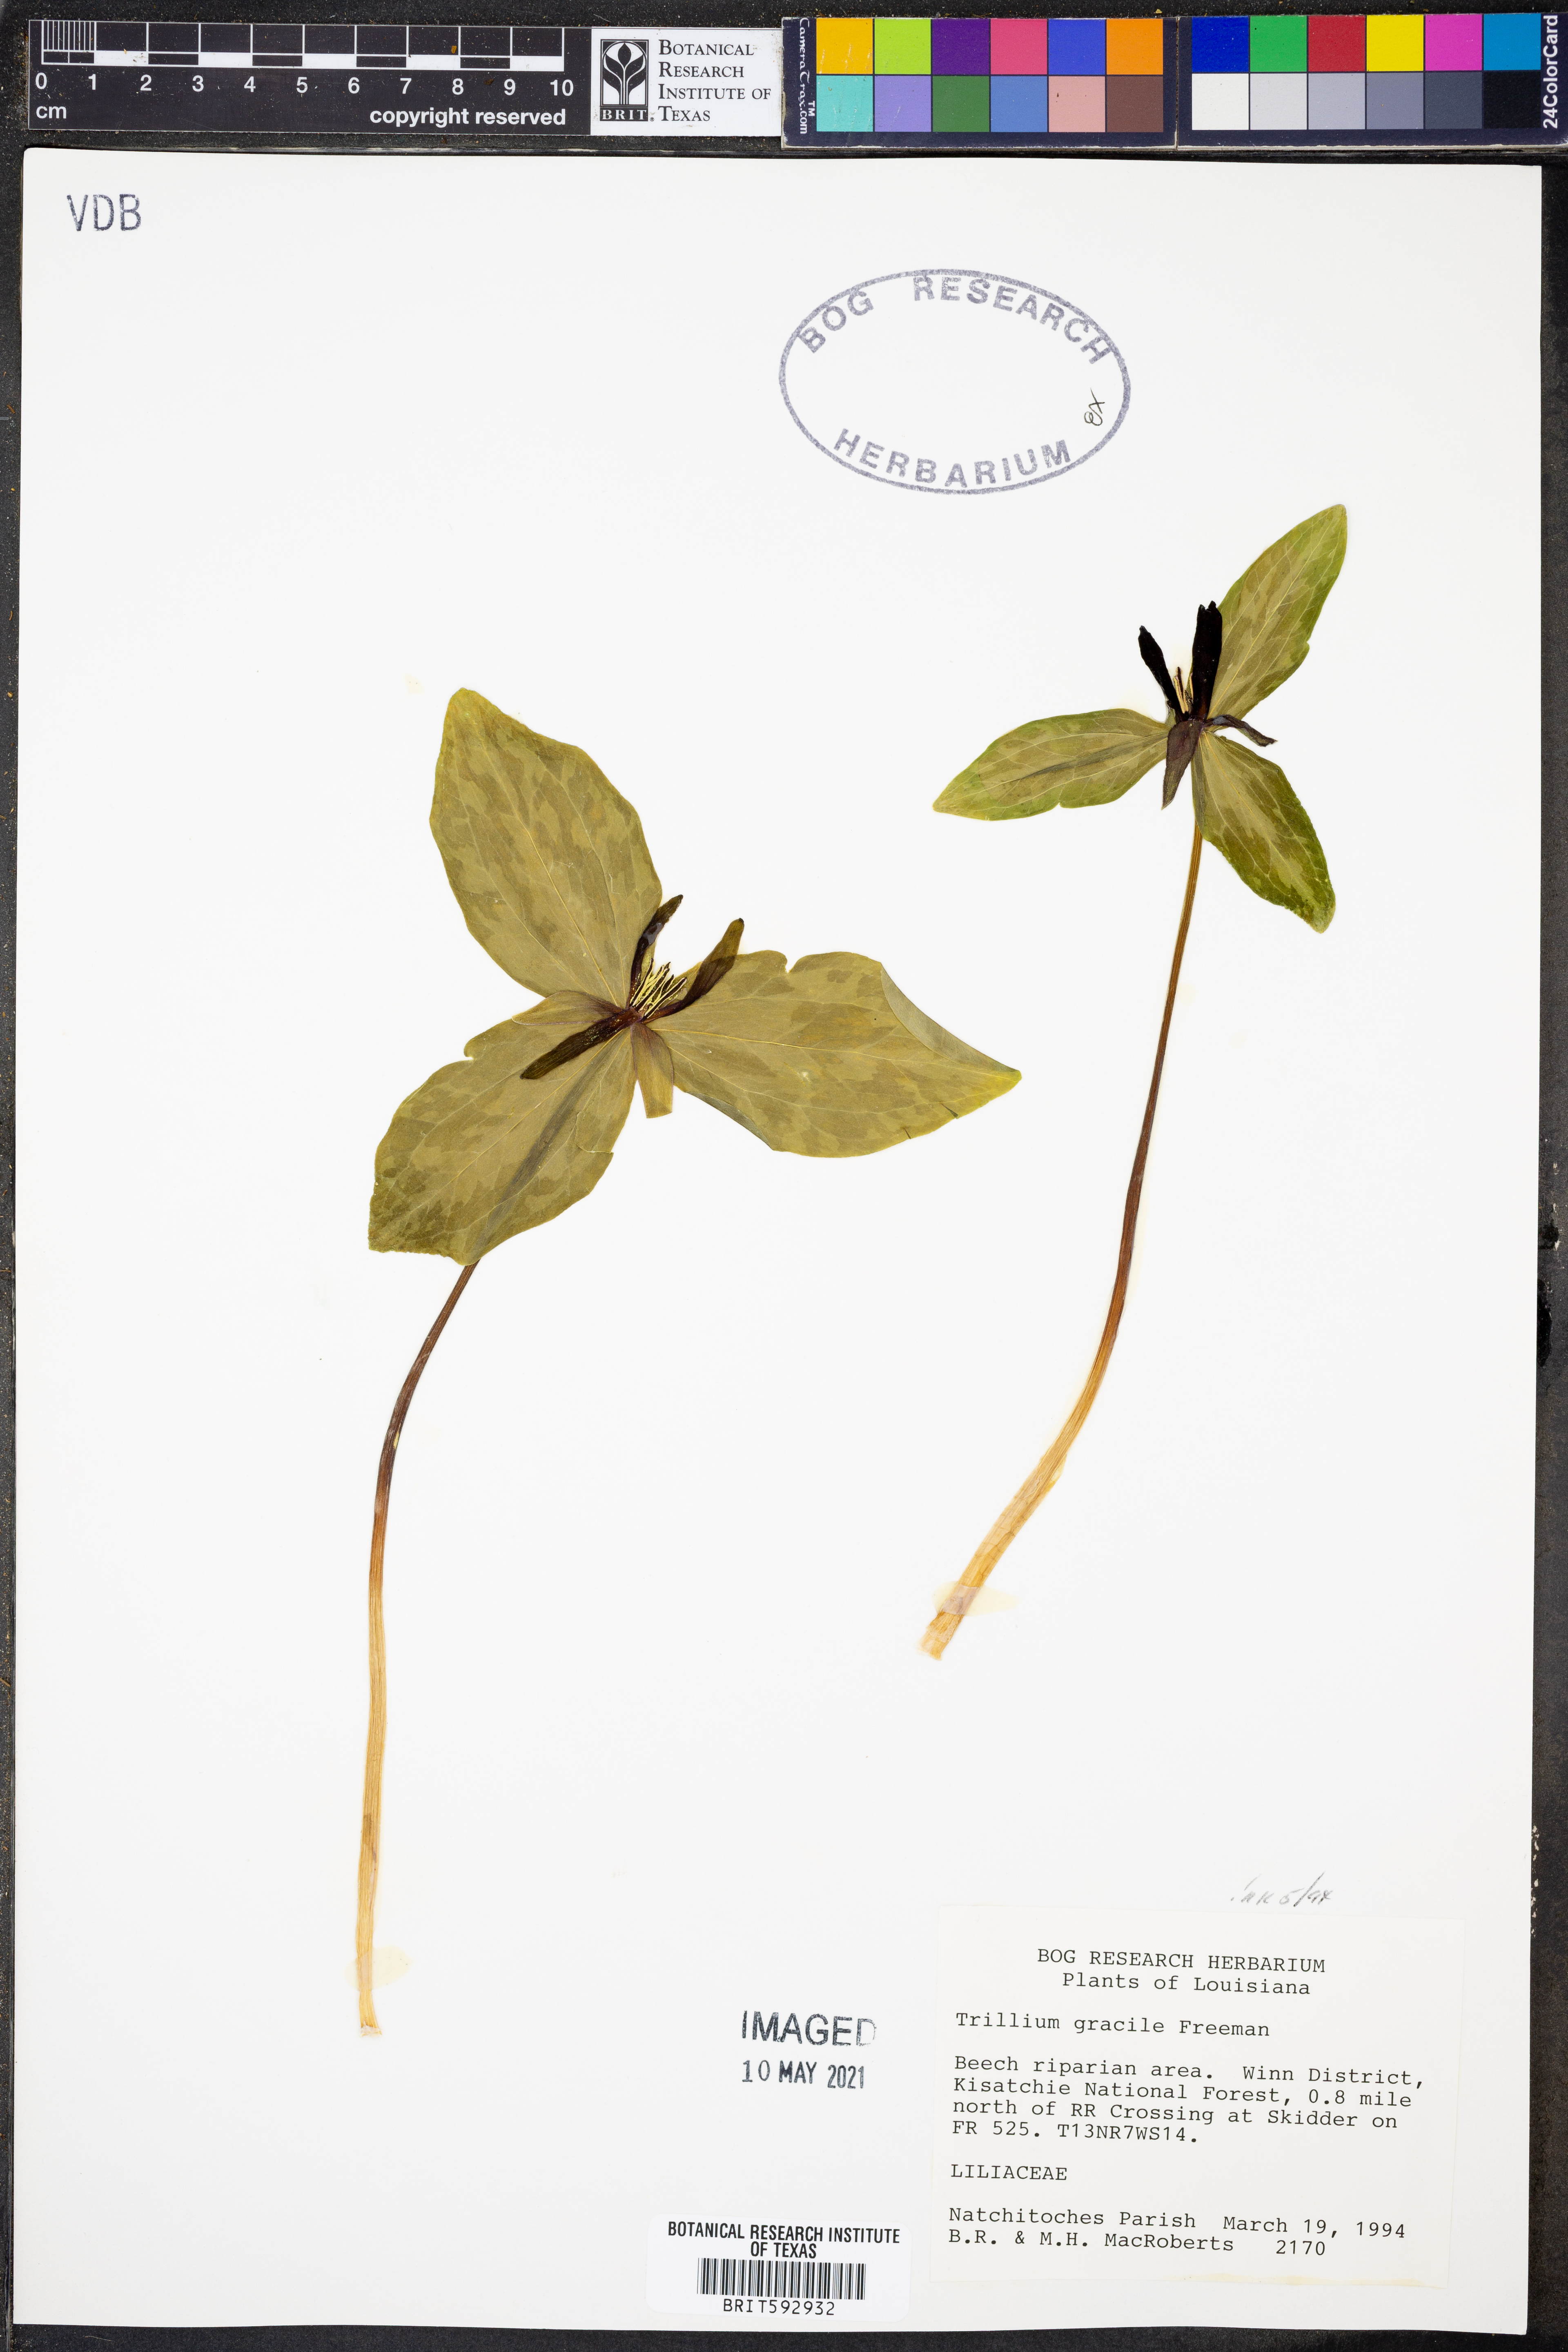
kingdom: Plantae
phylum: Tracheophyta
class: Liliopsida
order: Liliales
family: Melanthiaceae
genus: Trillium
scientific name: Trillium gracile
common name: Graceful trillium
